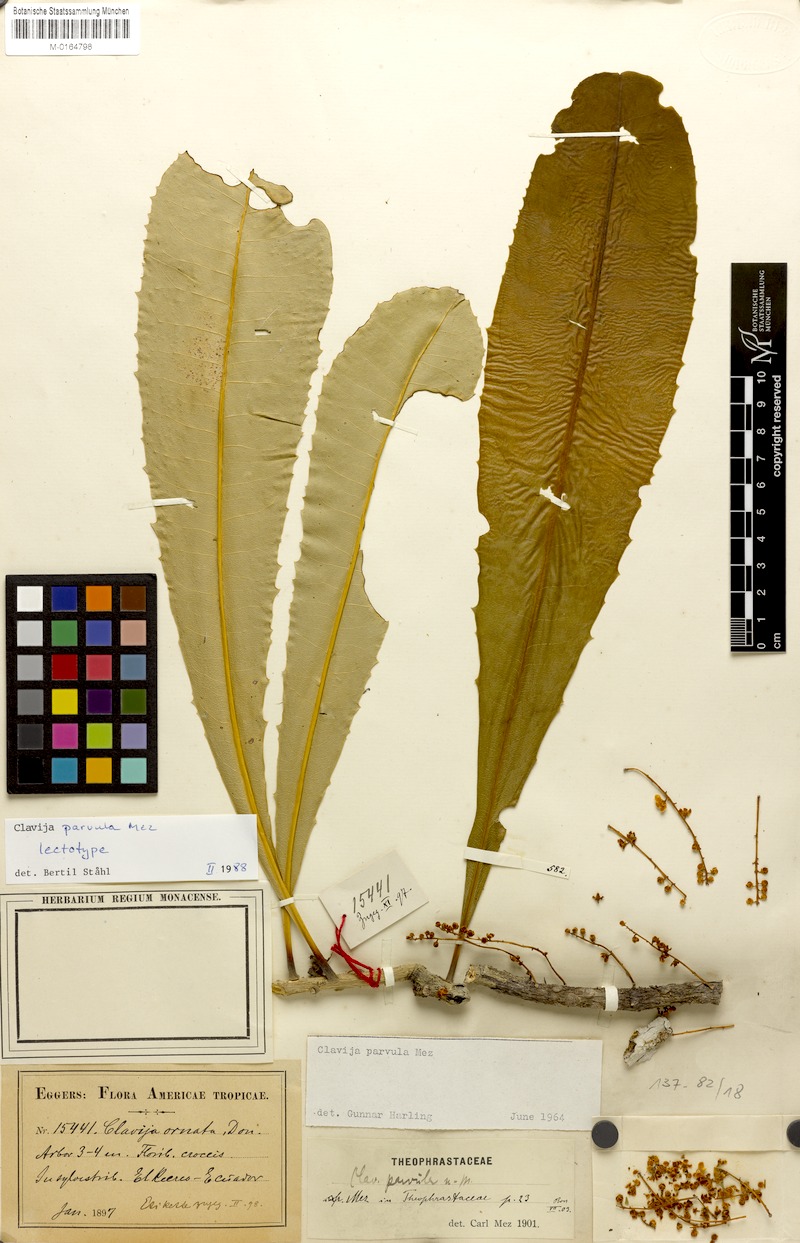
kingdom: Plantae
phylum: Tracheophyta
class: Magnoliopsida
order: Ericales
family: Primulaceae
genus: Clavija
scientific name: Clavija parvula
